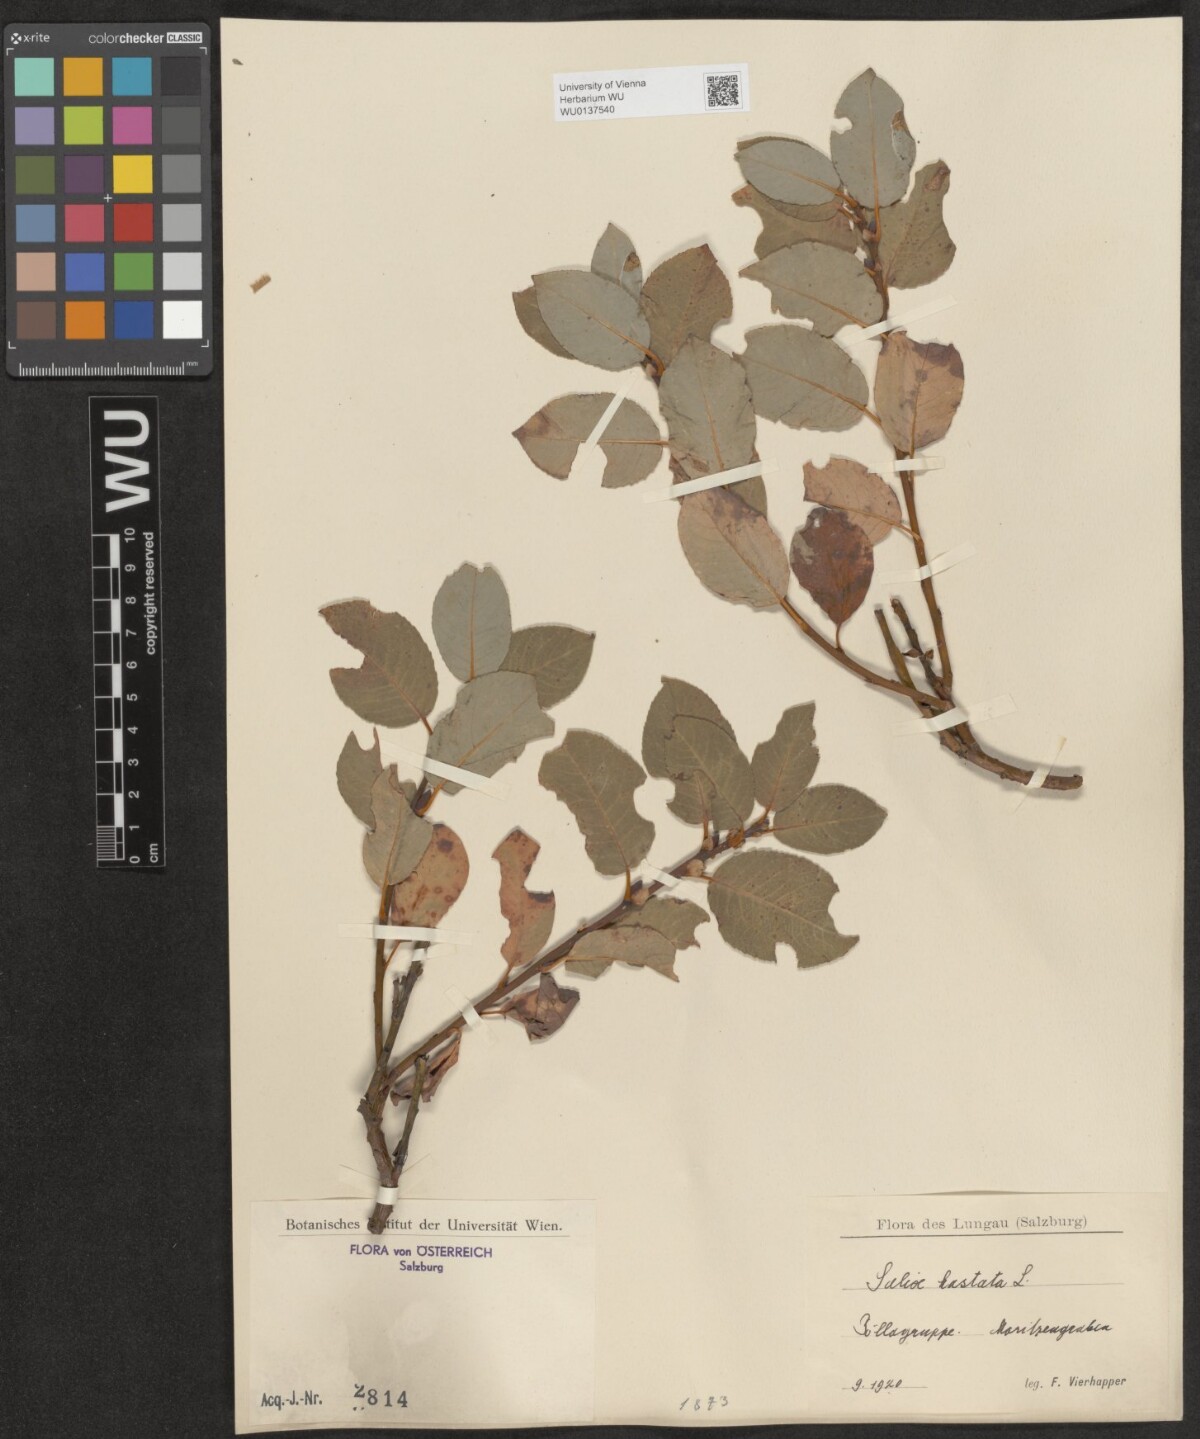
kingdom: Plantae
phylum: Tracheophyta
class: Magnoliopsida
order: Malpighiales
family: Salicaceae
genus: Salix
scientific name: Salix hastata
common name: Halberd willow
